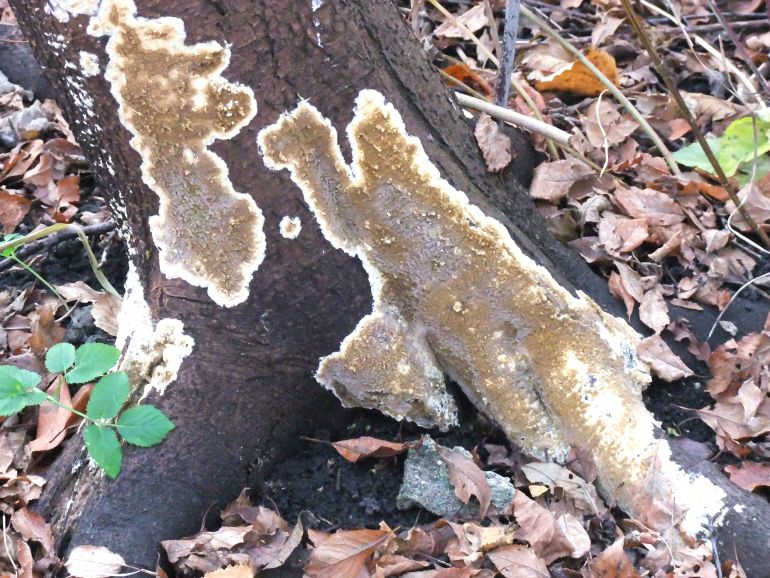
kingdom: Fungi
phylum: Basidiomycota
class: Agaricomycetes
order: Boletales
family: Coniophoraceae
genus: Coniophora
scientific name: Coniophora puteana
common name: gul tømmersvamp
